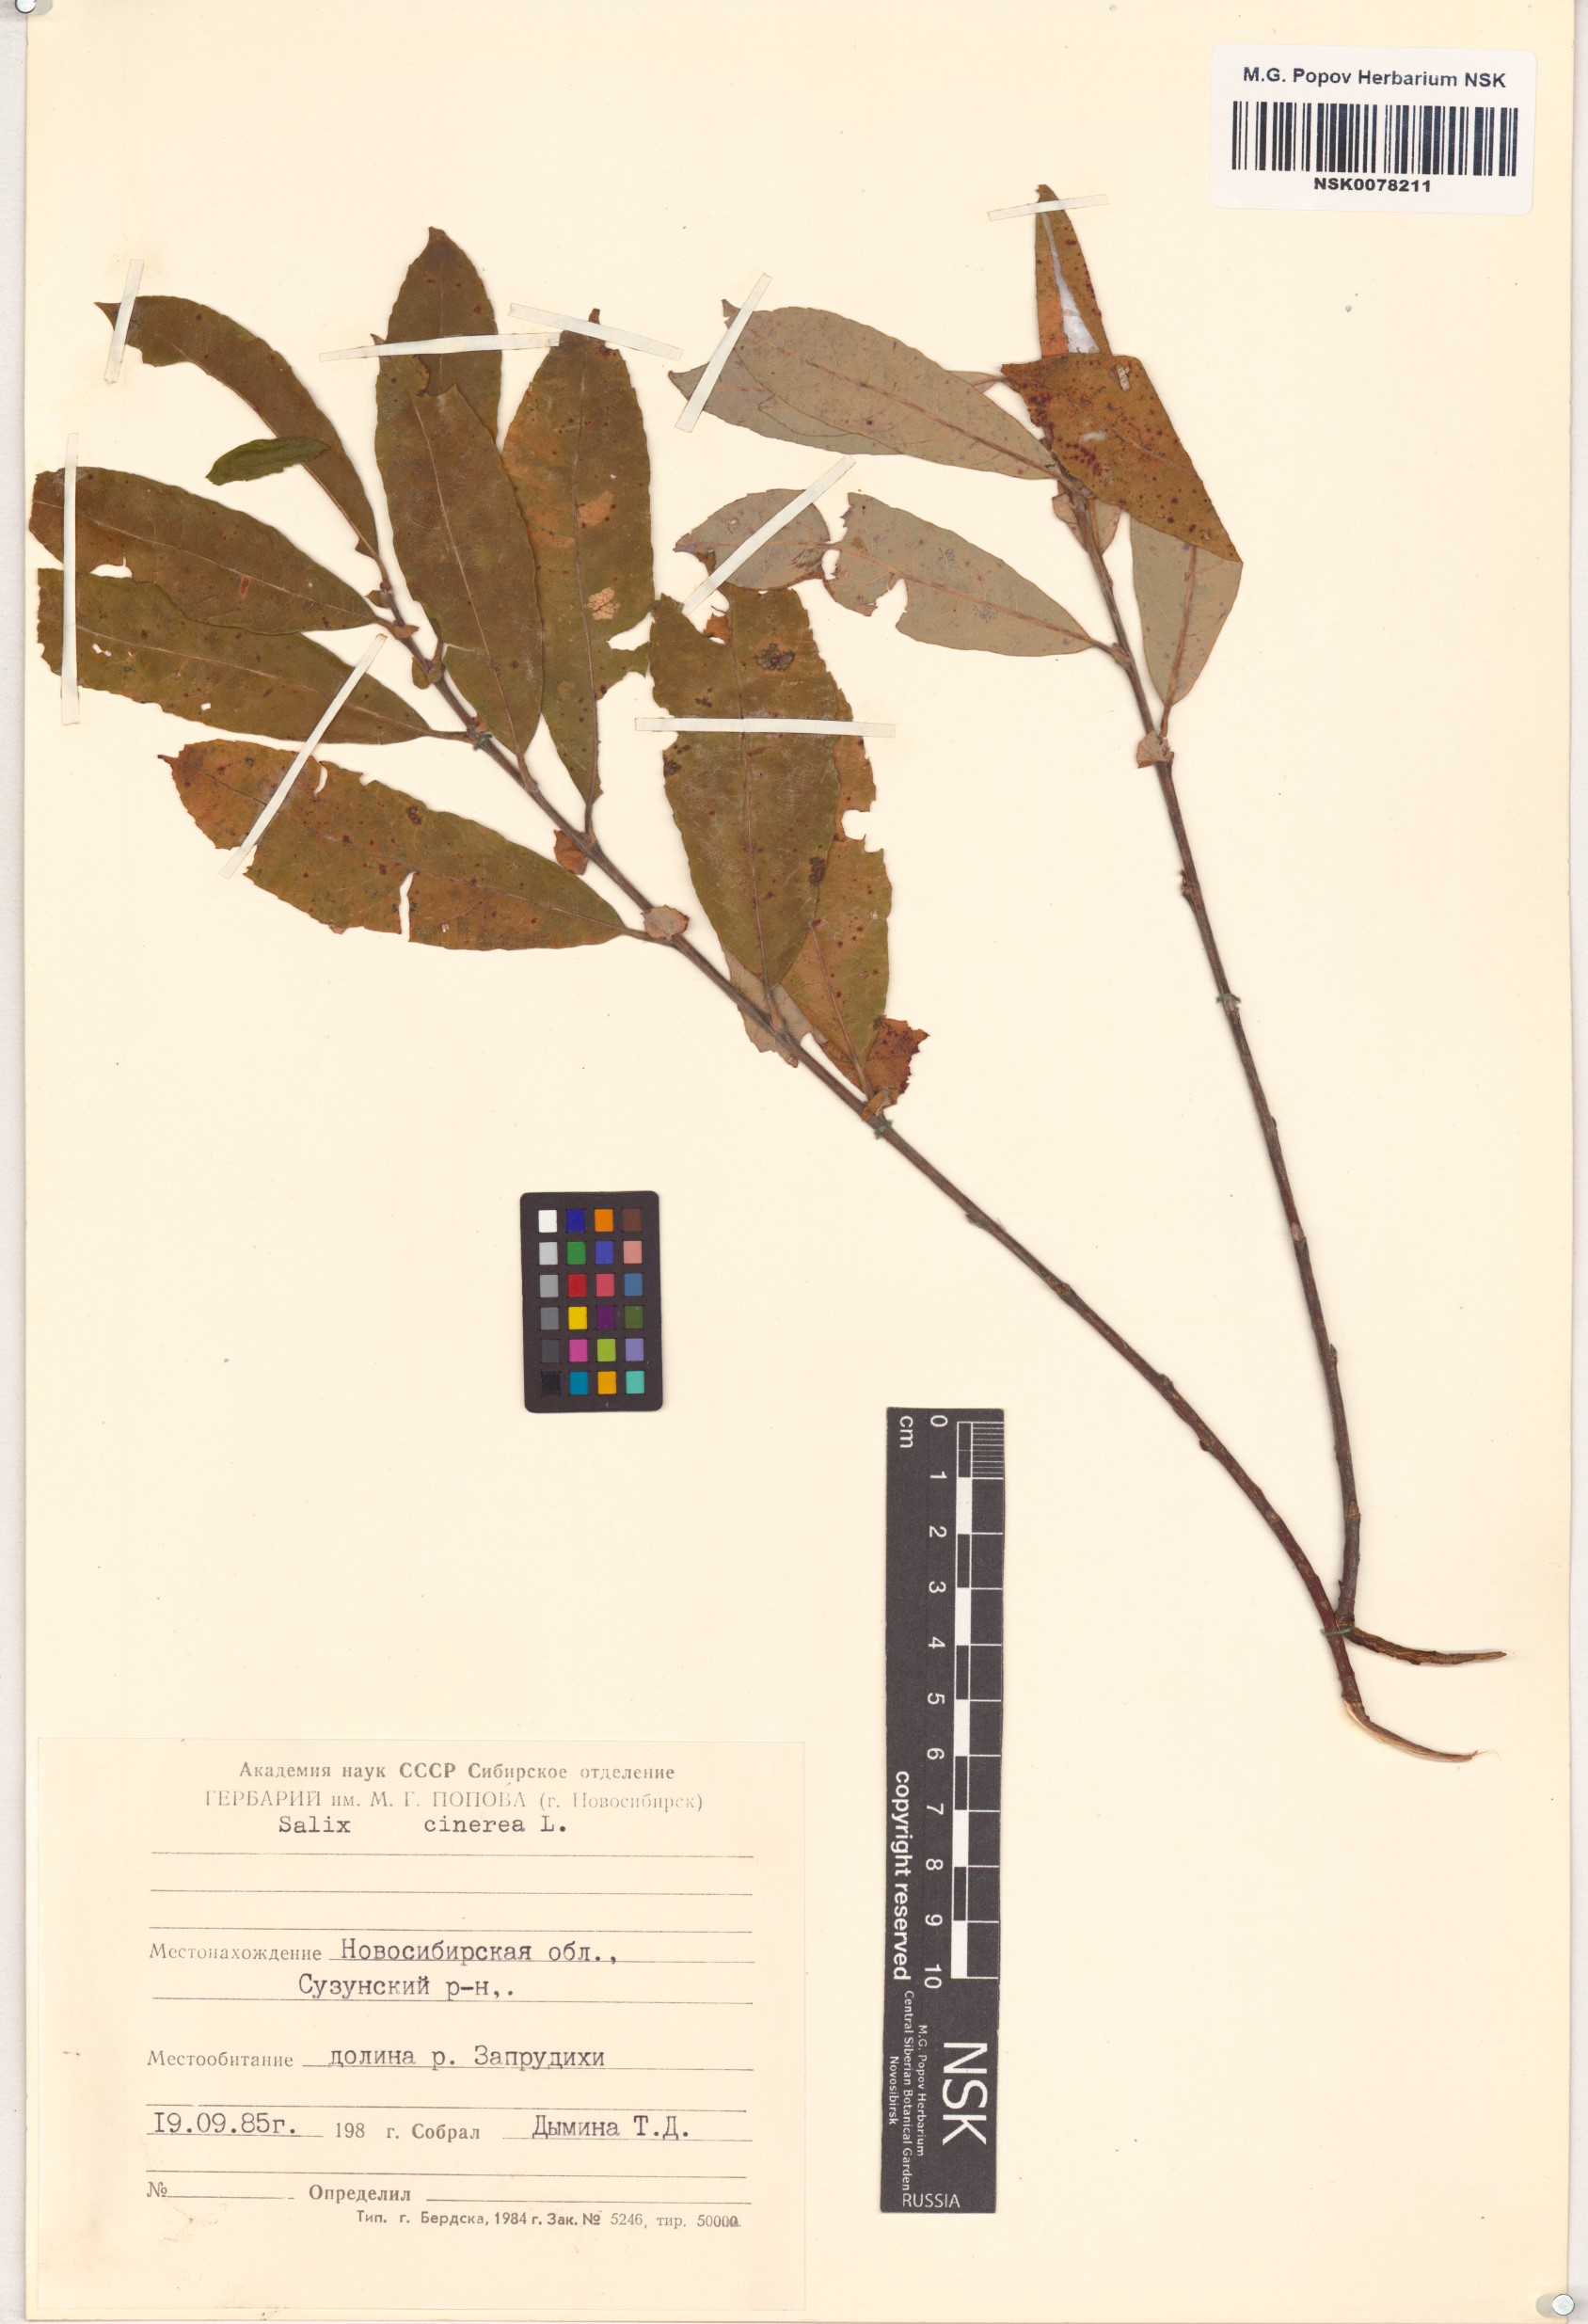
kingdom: Plantae
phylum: Tracheophyta
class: Magnoliopsida
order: Malpighiales
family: Salicaceae
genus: Salix
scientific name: Salix cinerea
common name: Common sallow
